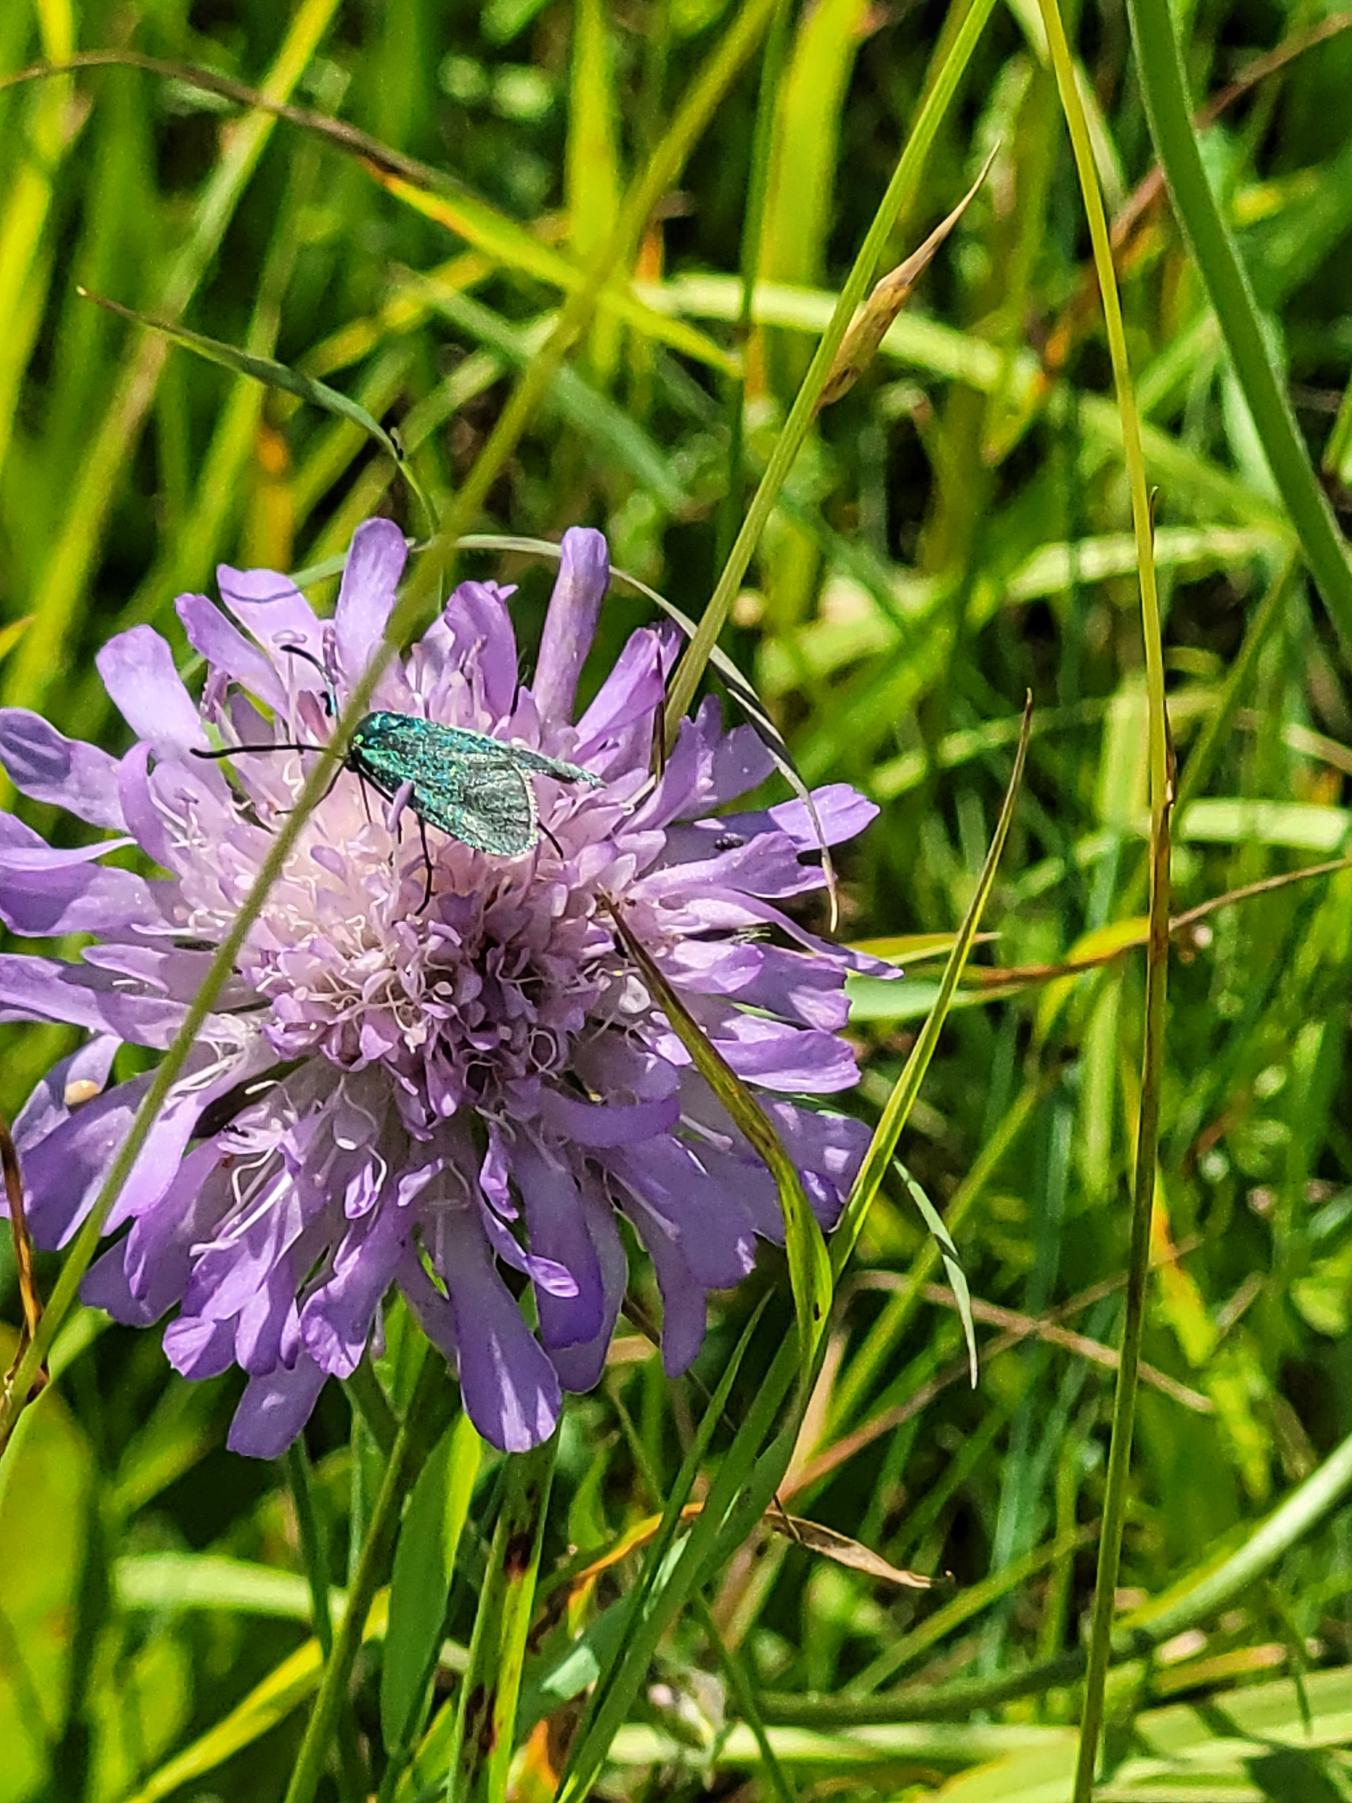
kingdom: Animalia
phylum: Arthropoda
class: Insecta
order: Lepidoptera
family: Zygaenidae
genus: Adscita
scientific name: Adscita statices
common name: Metalvinge
